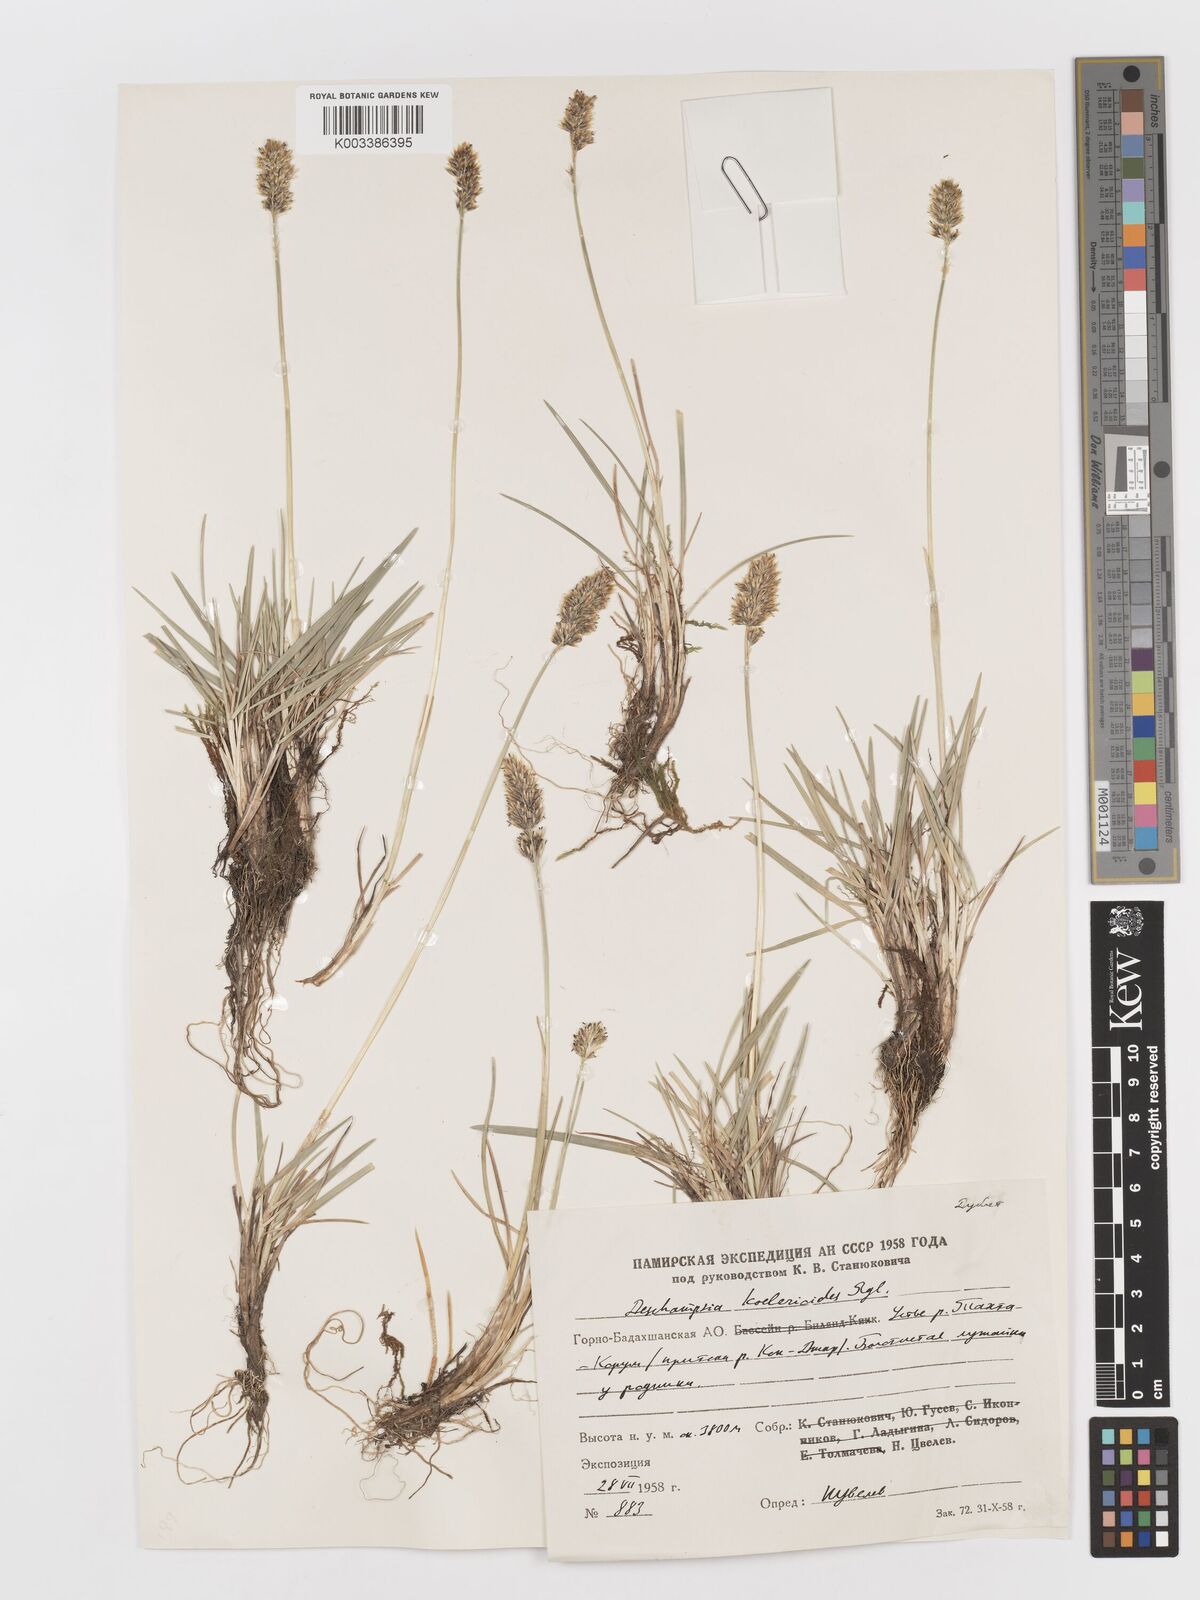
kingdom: Plantae
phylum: Tracheophyta
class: Liliopsida
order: Poales
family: Poaceae
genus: Deschampsia
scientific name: Deschampsia koelerioides
